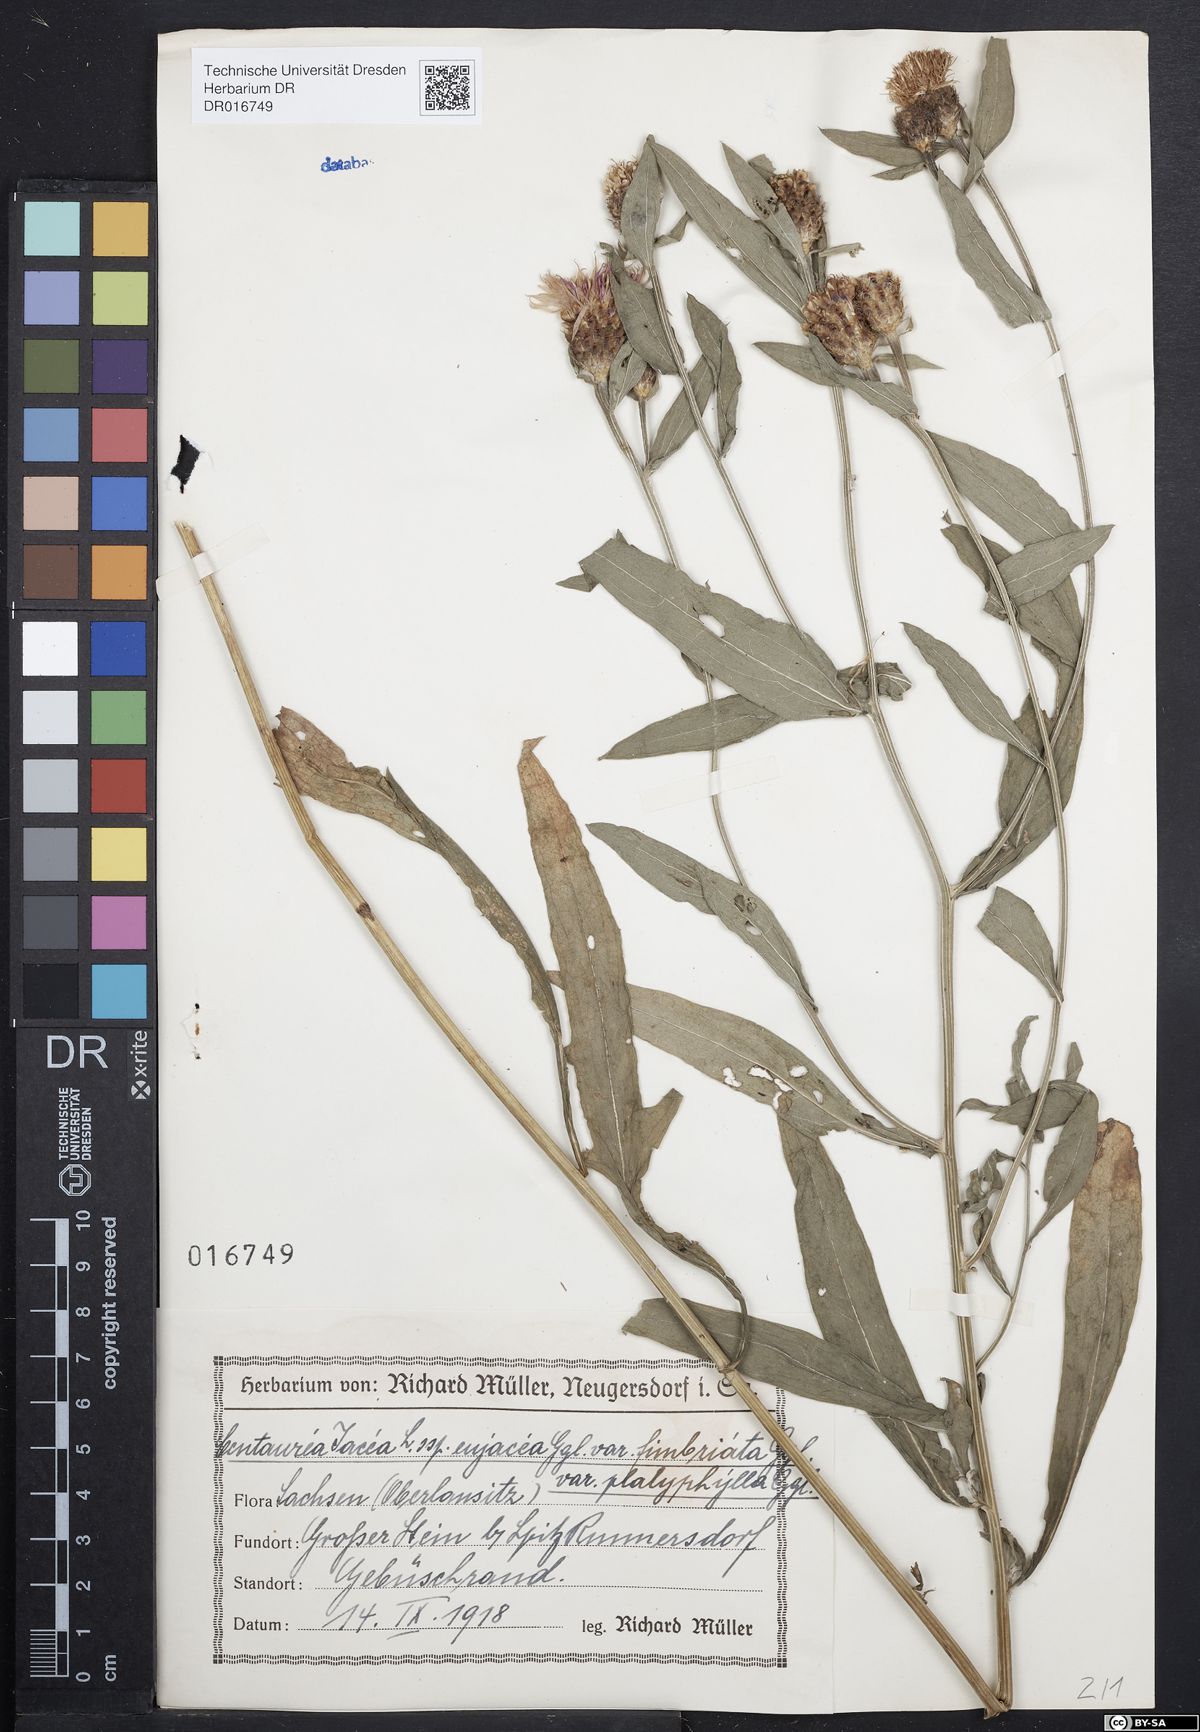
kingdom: Plantae
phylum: Tracheophyta
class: Magnoliopsida
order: Asterales
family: Asteraceae
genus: Centaurea
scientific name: Centaurea jacea
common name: Brown knapweed
